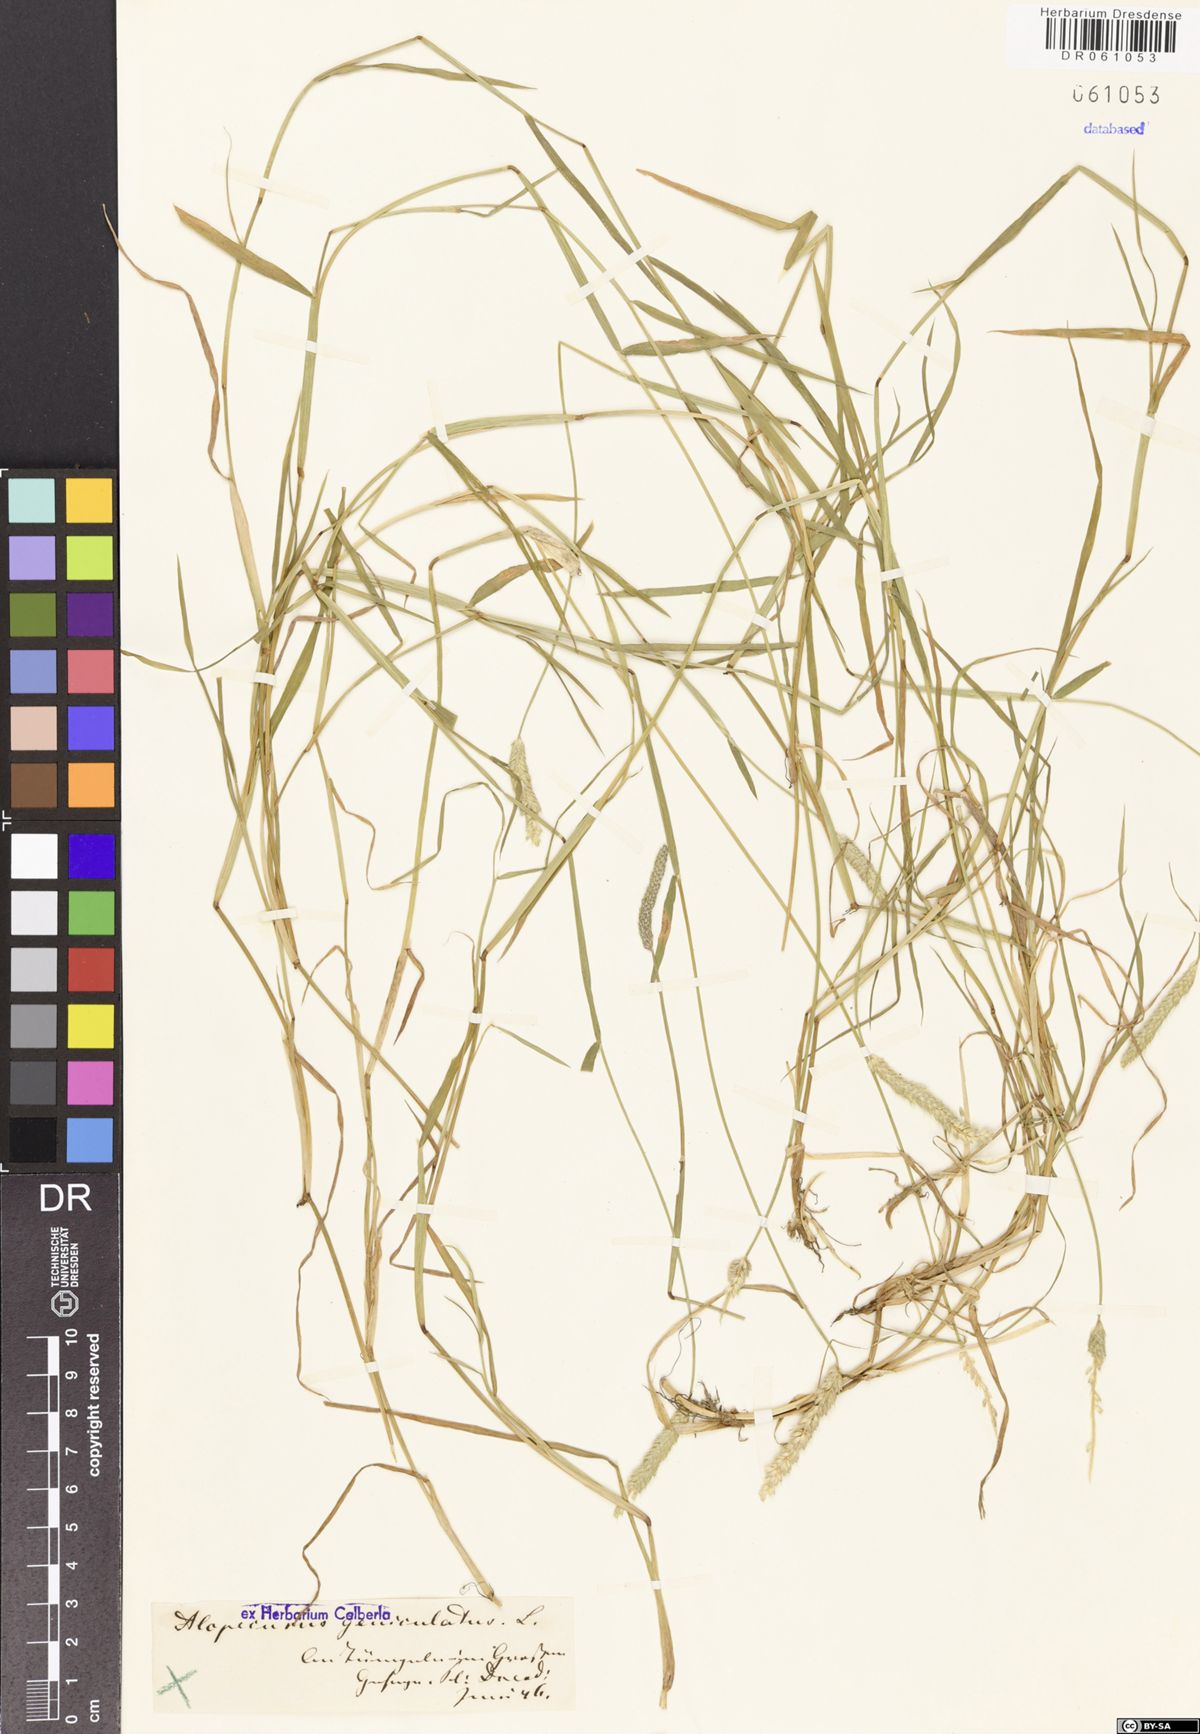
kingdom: Plantae
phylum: Tracheophyta
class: Liliopsida
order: Poales
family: Poaceae
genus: Alopecurus
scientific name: Alopecurus geniculatus
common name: Water foxtail
